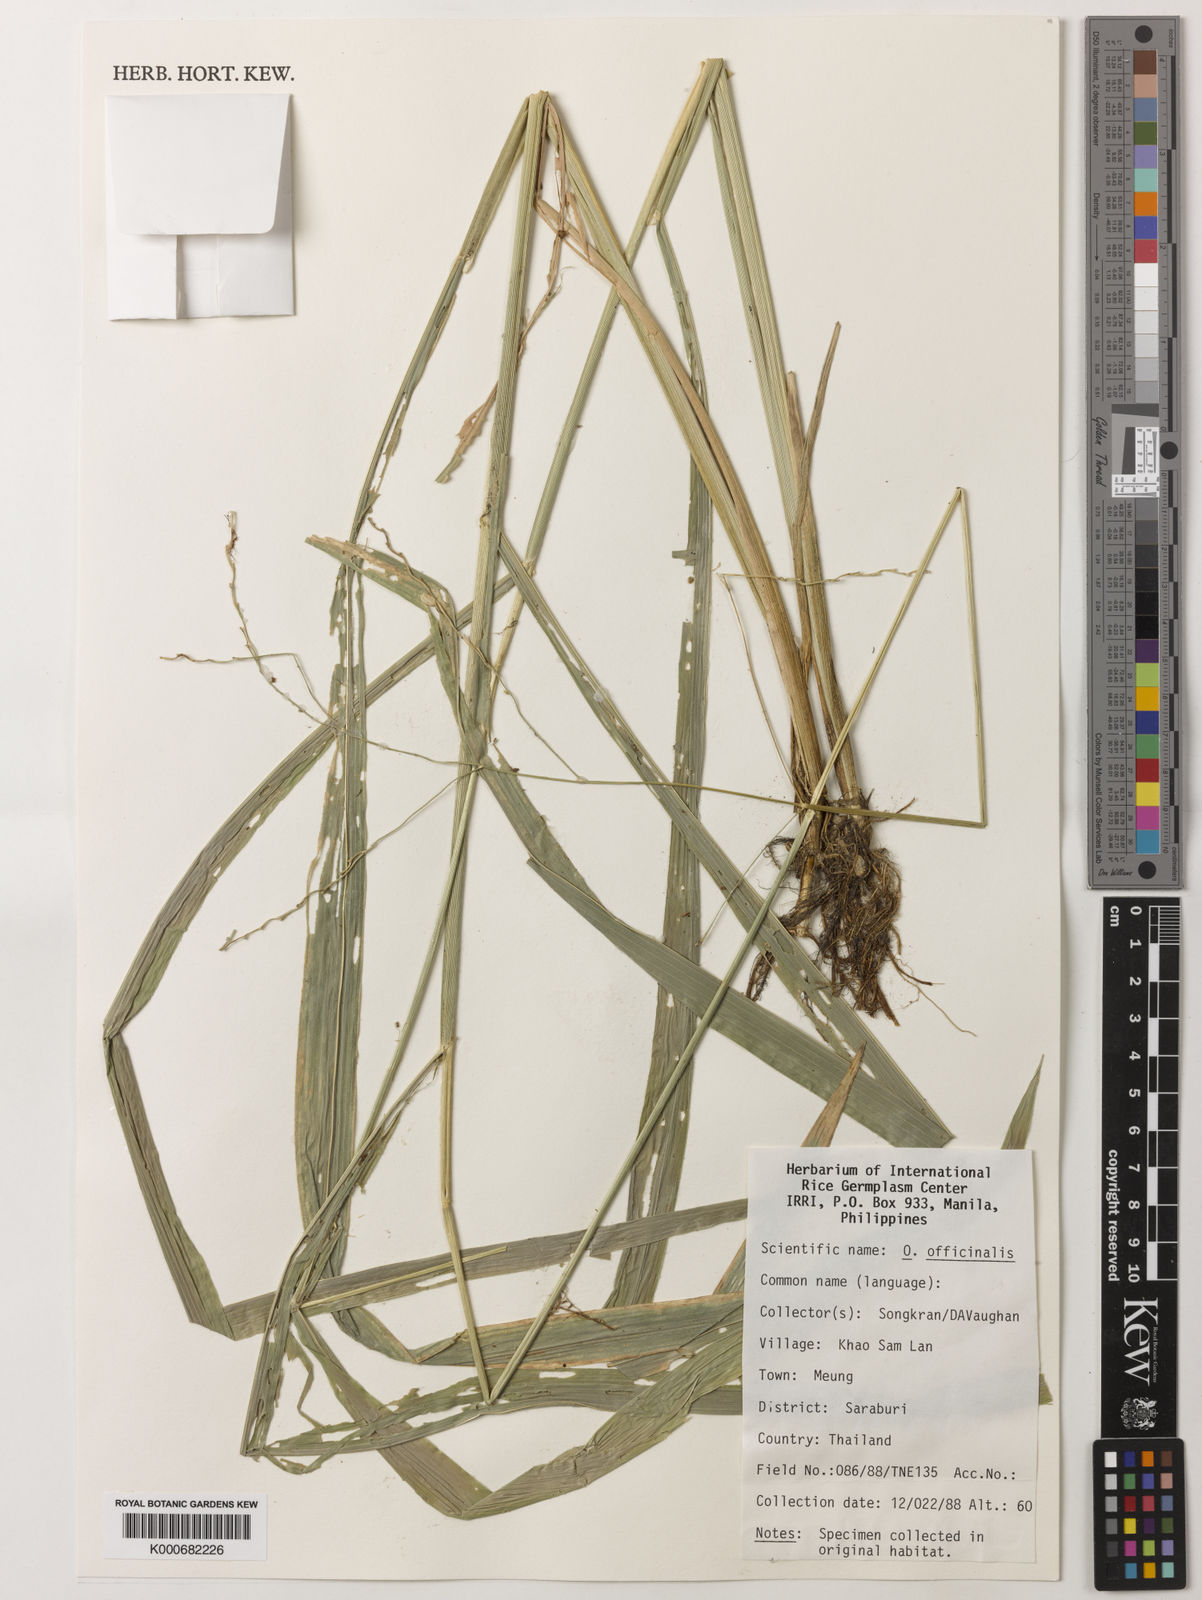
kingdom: Plantae
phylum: Tracheophyta
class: Liliopsida
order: Poales
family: Poaceae
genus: Oryza
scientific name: Oryza
